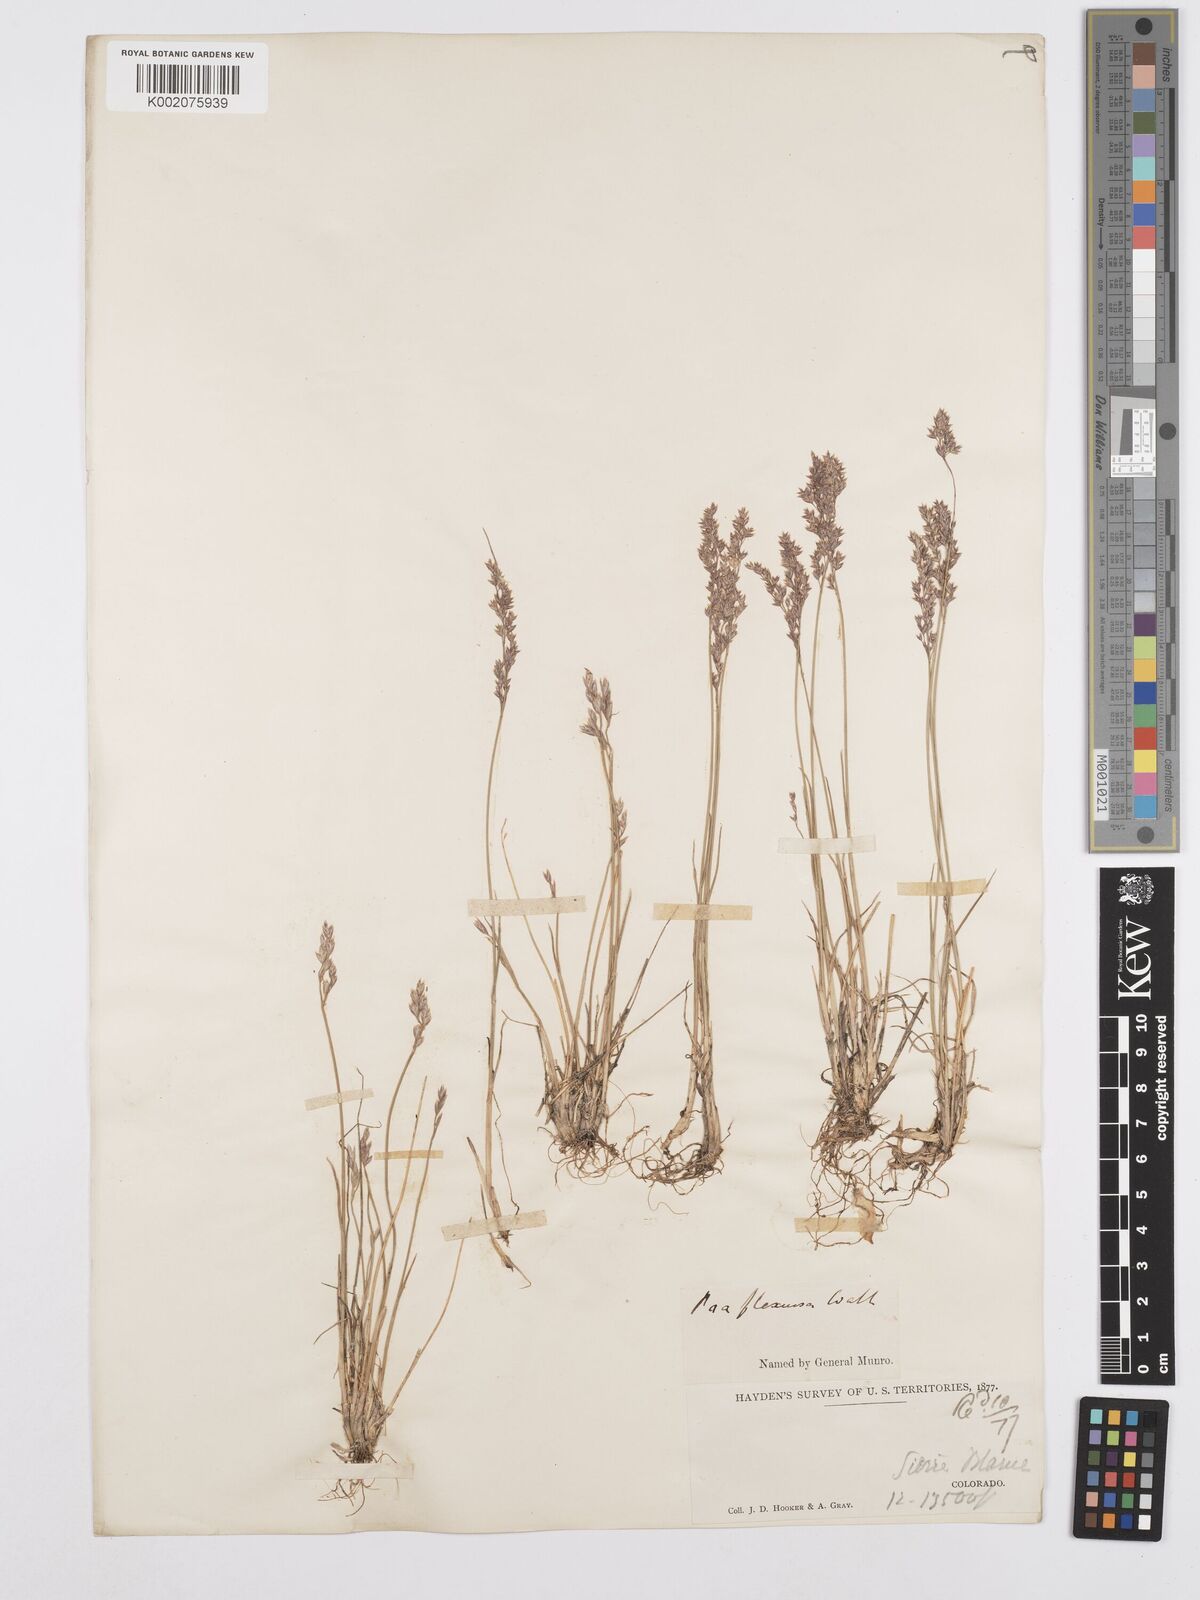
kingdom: Plantae
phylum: Tracheophyta
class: Liliopsida
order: Poales
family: Poaceae
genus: Poa
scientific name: Poa autumnalis
